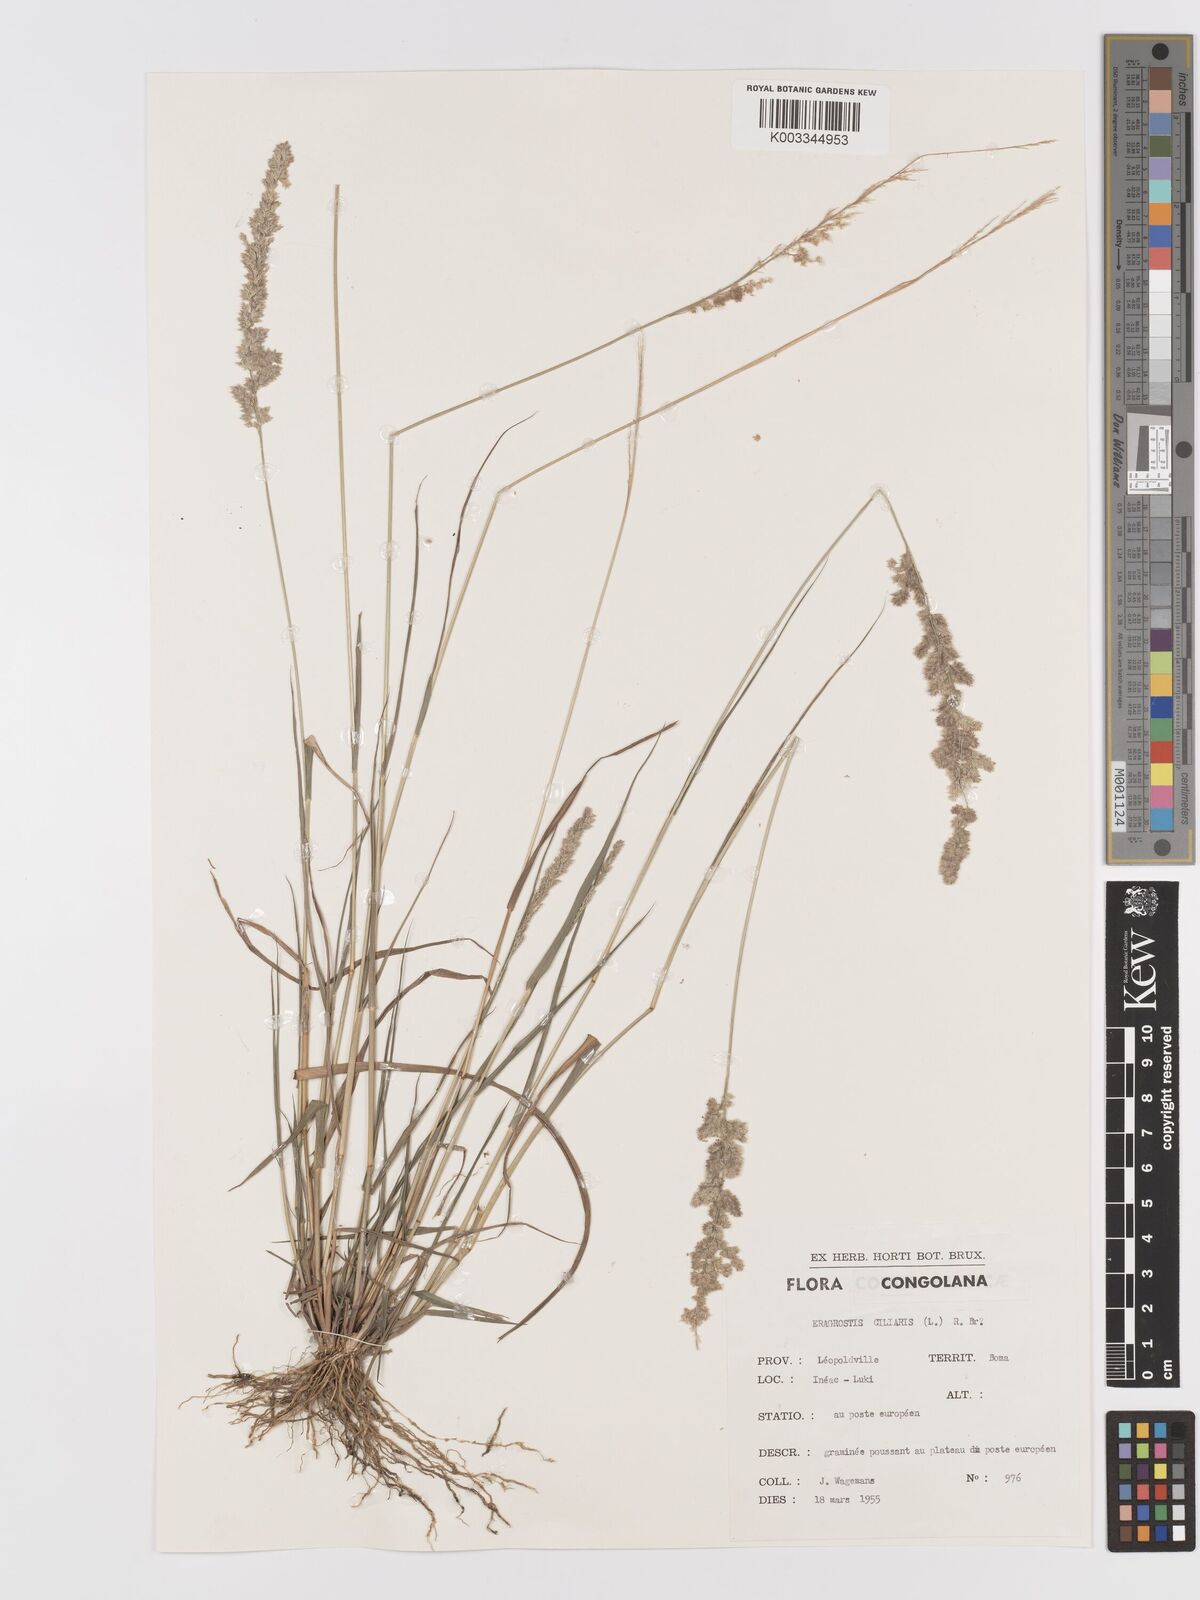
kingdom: Plantae
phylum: Tracheophyta
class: Liliopsida
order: Poales
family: Poaceae
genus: Eragrostis
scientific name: Eragrostis ciliaris
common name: Gophertail lovegrass
